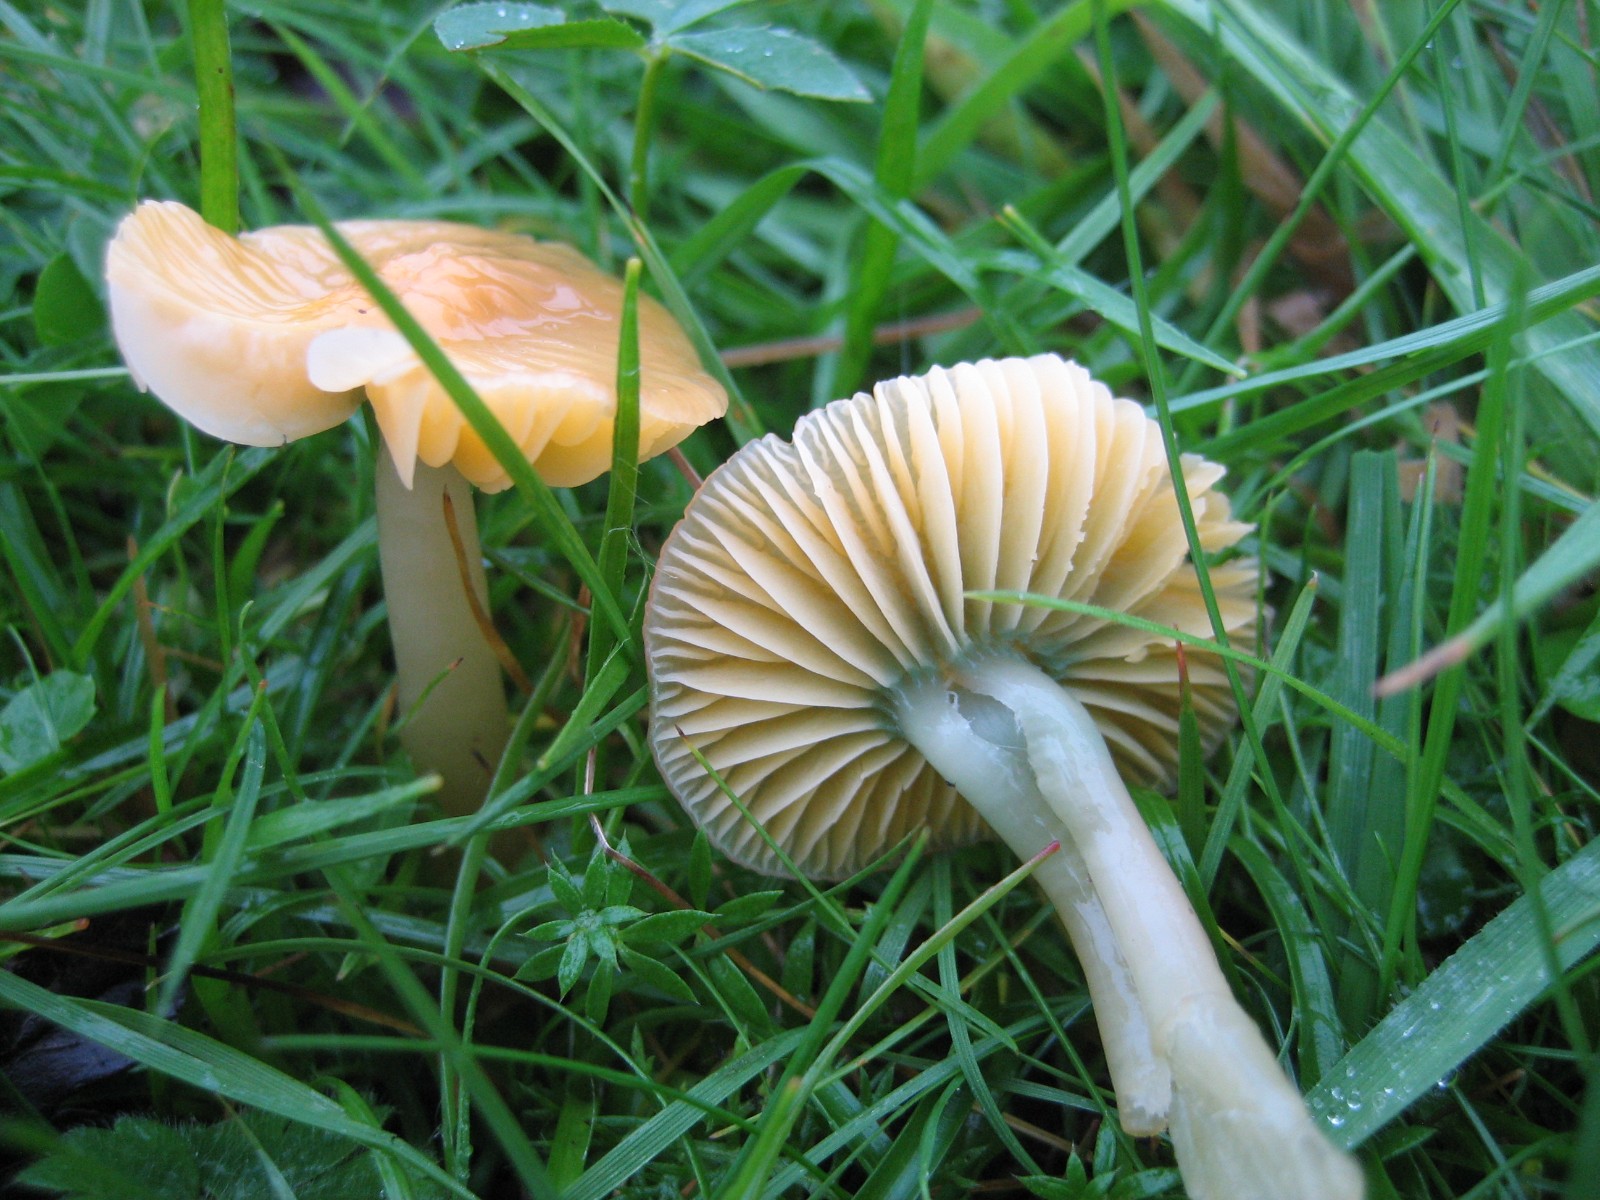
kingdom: Fungi
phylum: Basidiomycota
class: Agaricomycetes
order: Agaricales
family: Hygrophoraceae
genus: Gliophorus
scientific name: Gliophorus psittacinus
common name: papegøje-vokshat
